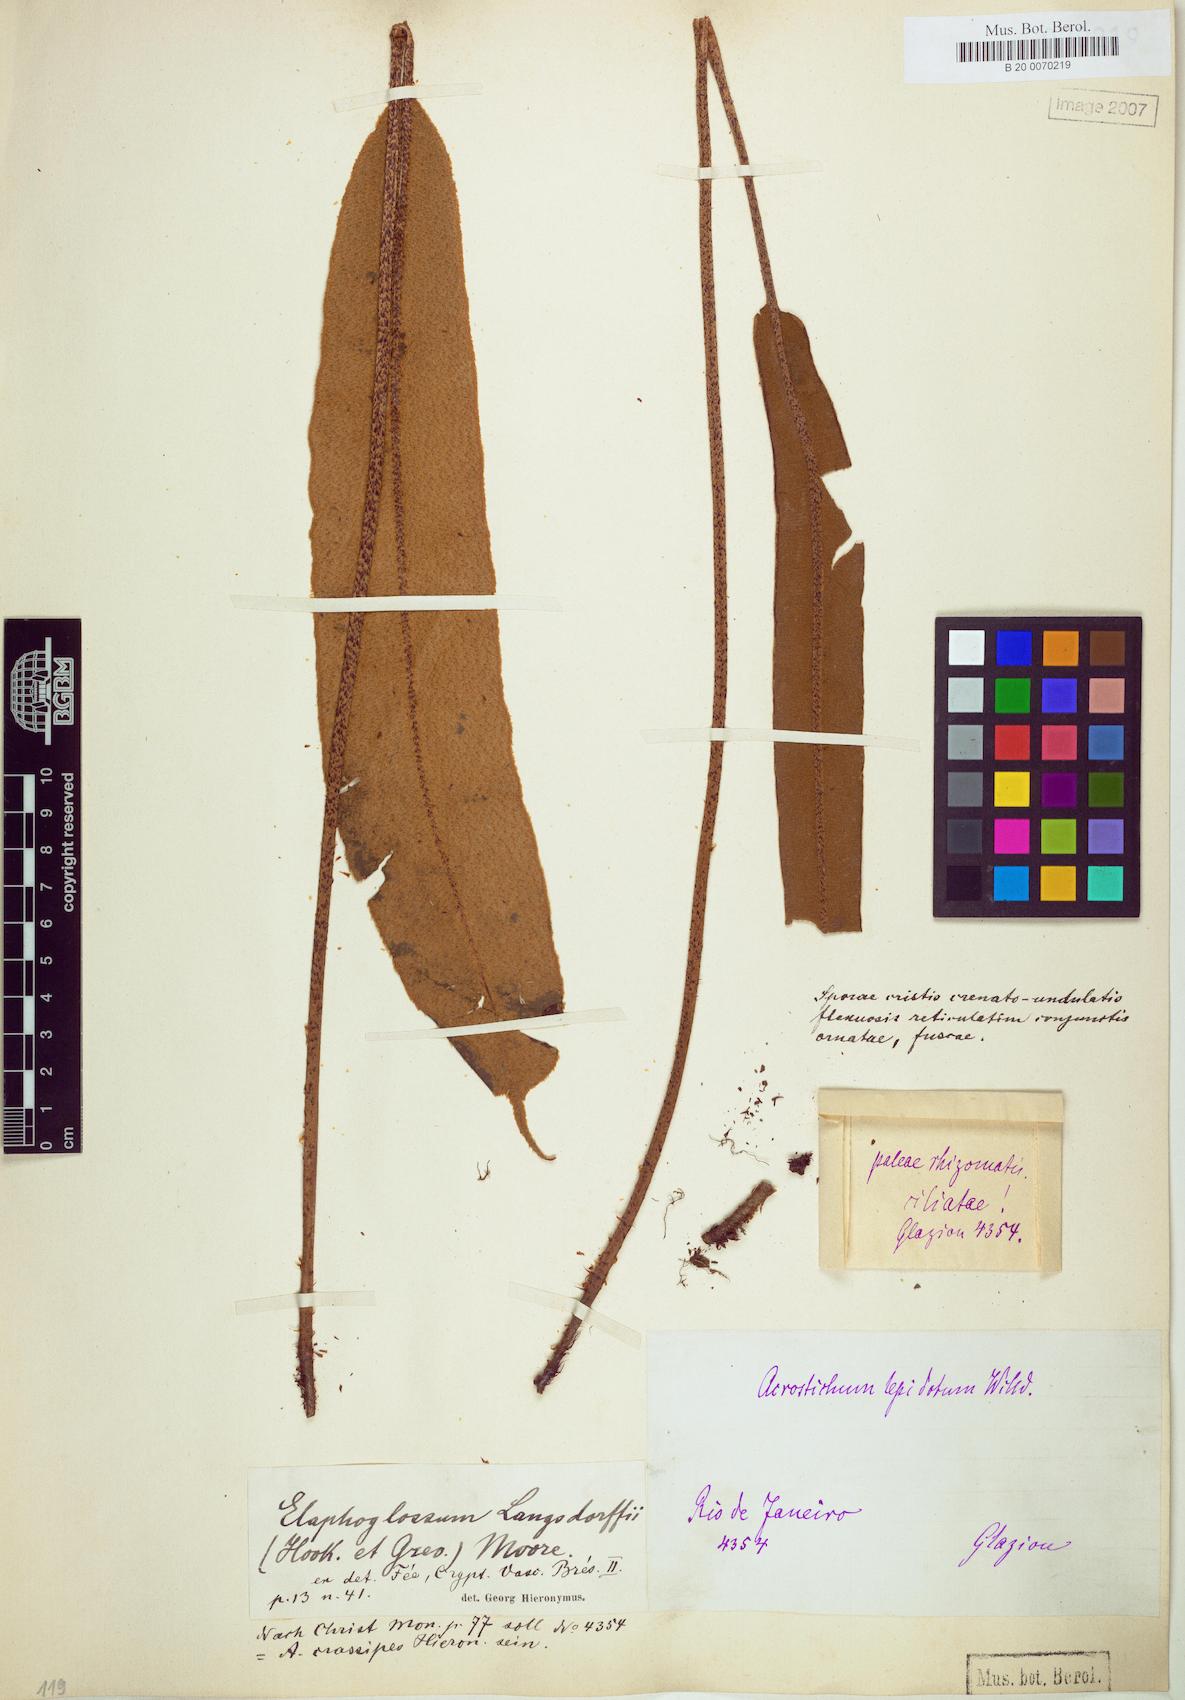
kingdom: Plantae
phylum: Tracheophyta
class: Polypodiopsida
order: Polypodiales
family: Dryopteridaceae
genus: Elaphoglossum
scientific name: Elaphoglossum crassipes
